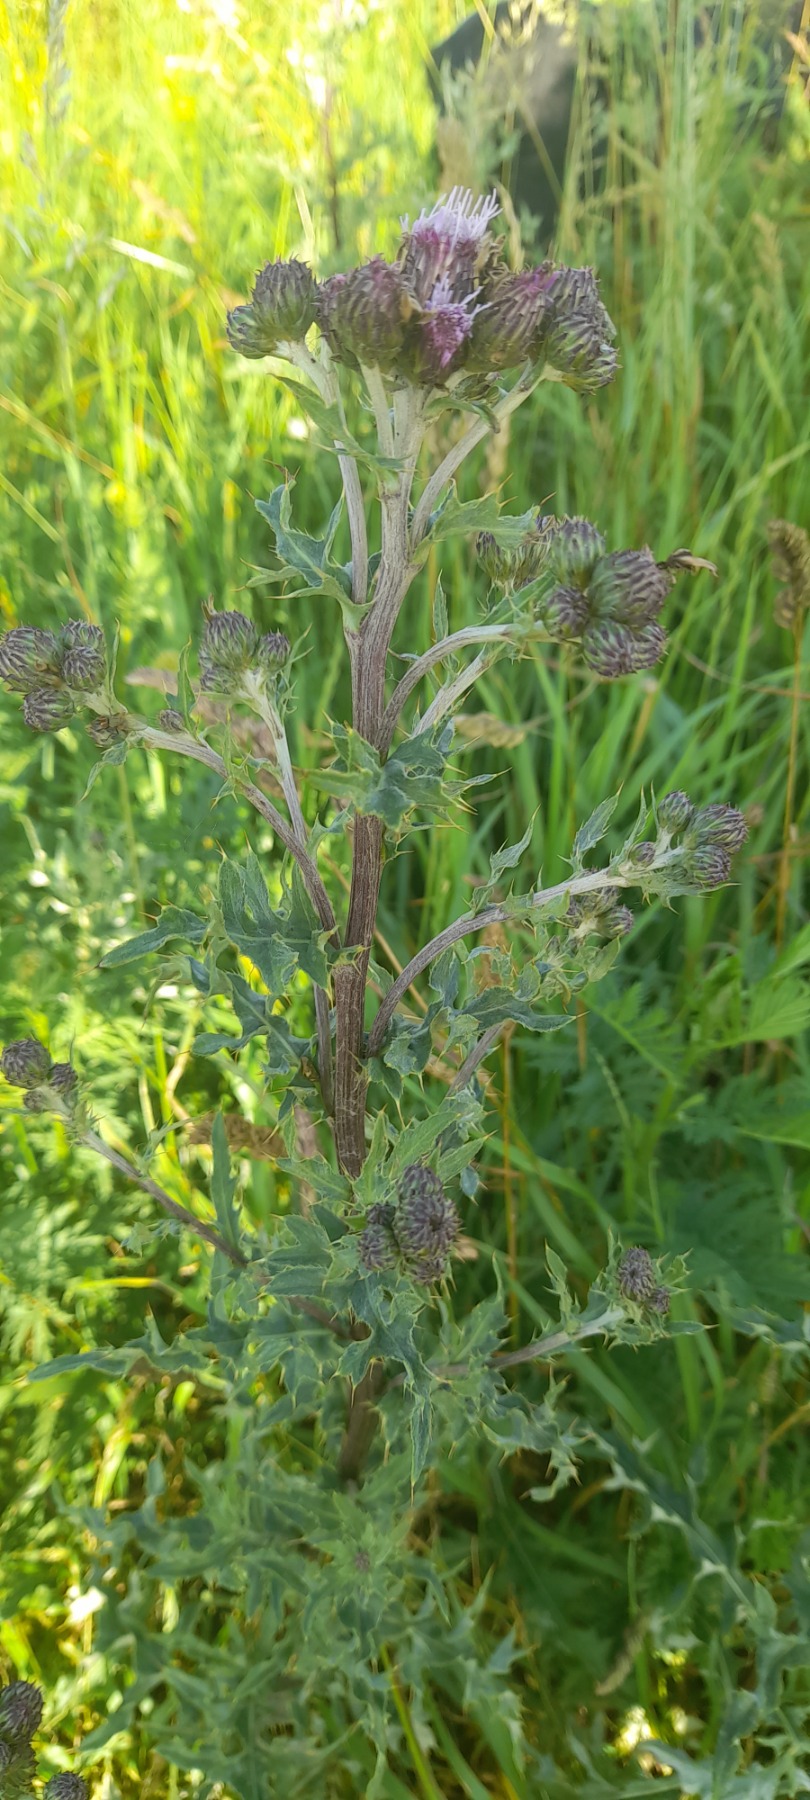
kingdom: Plantae
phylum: Tracheophyta
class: Magnoliopsida
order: Asterales
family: Asteraceae
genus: Cirsium
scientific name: Cirsium arvense
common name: Ager-tidsel
